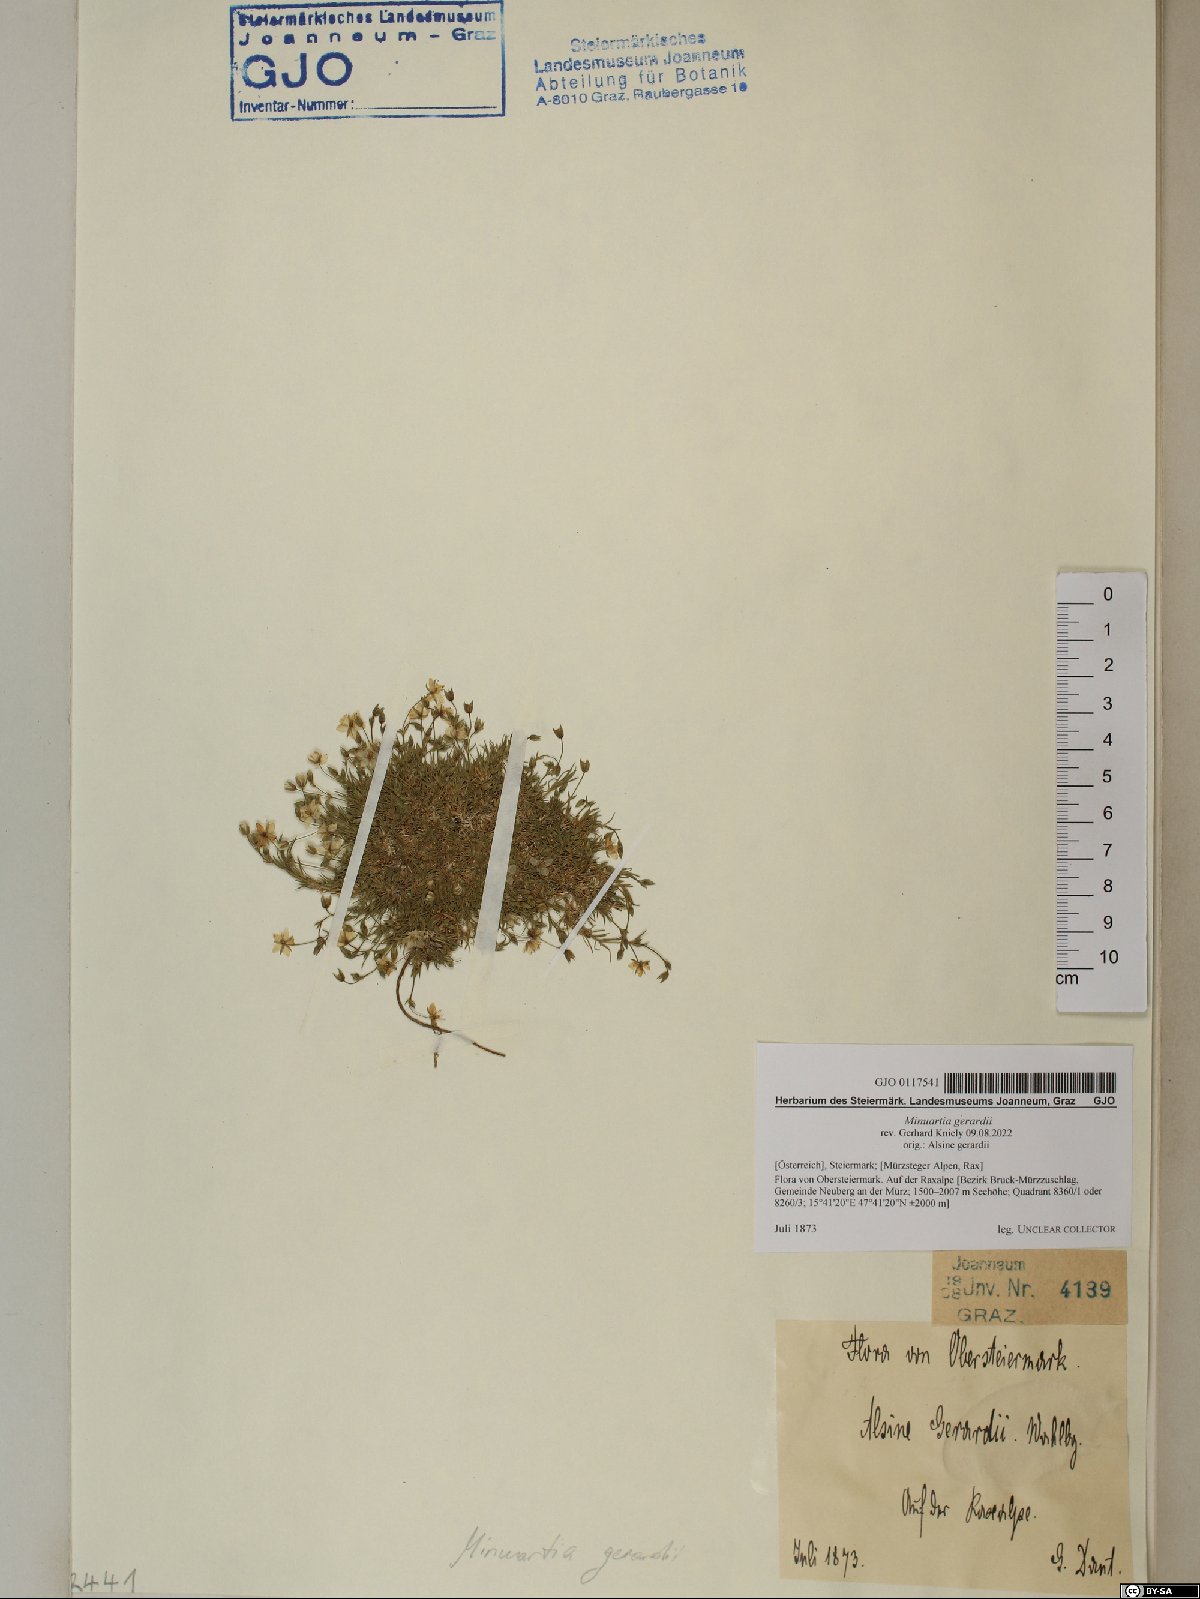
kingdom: Plantae
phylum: Tracheophyta
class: Magnoliopsida
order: Caryophyllales
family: Caryophyllaceae
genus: Sabulina
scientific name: Sabulina verna
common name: Spring sandwort
